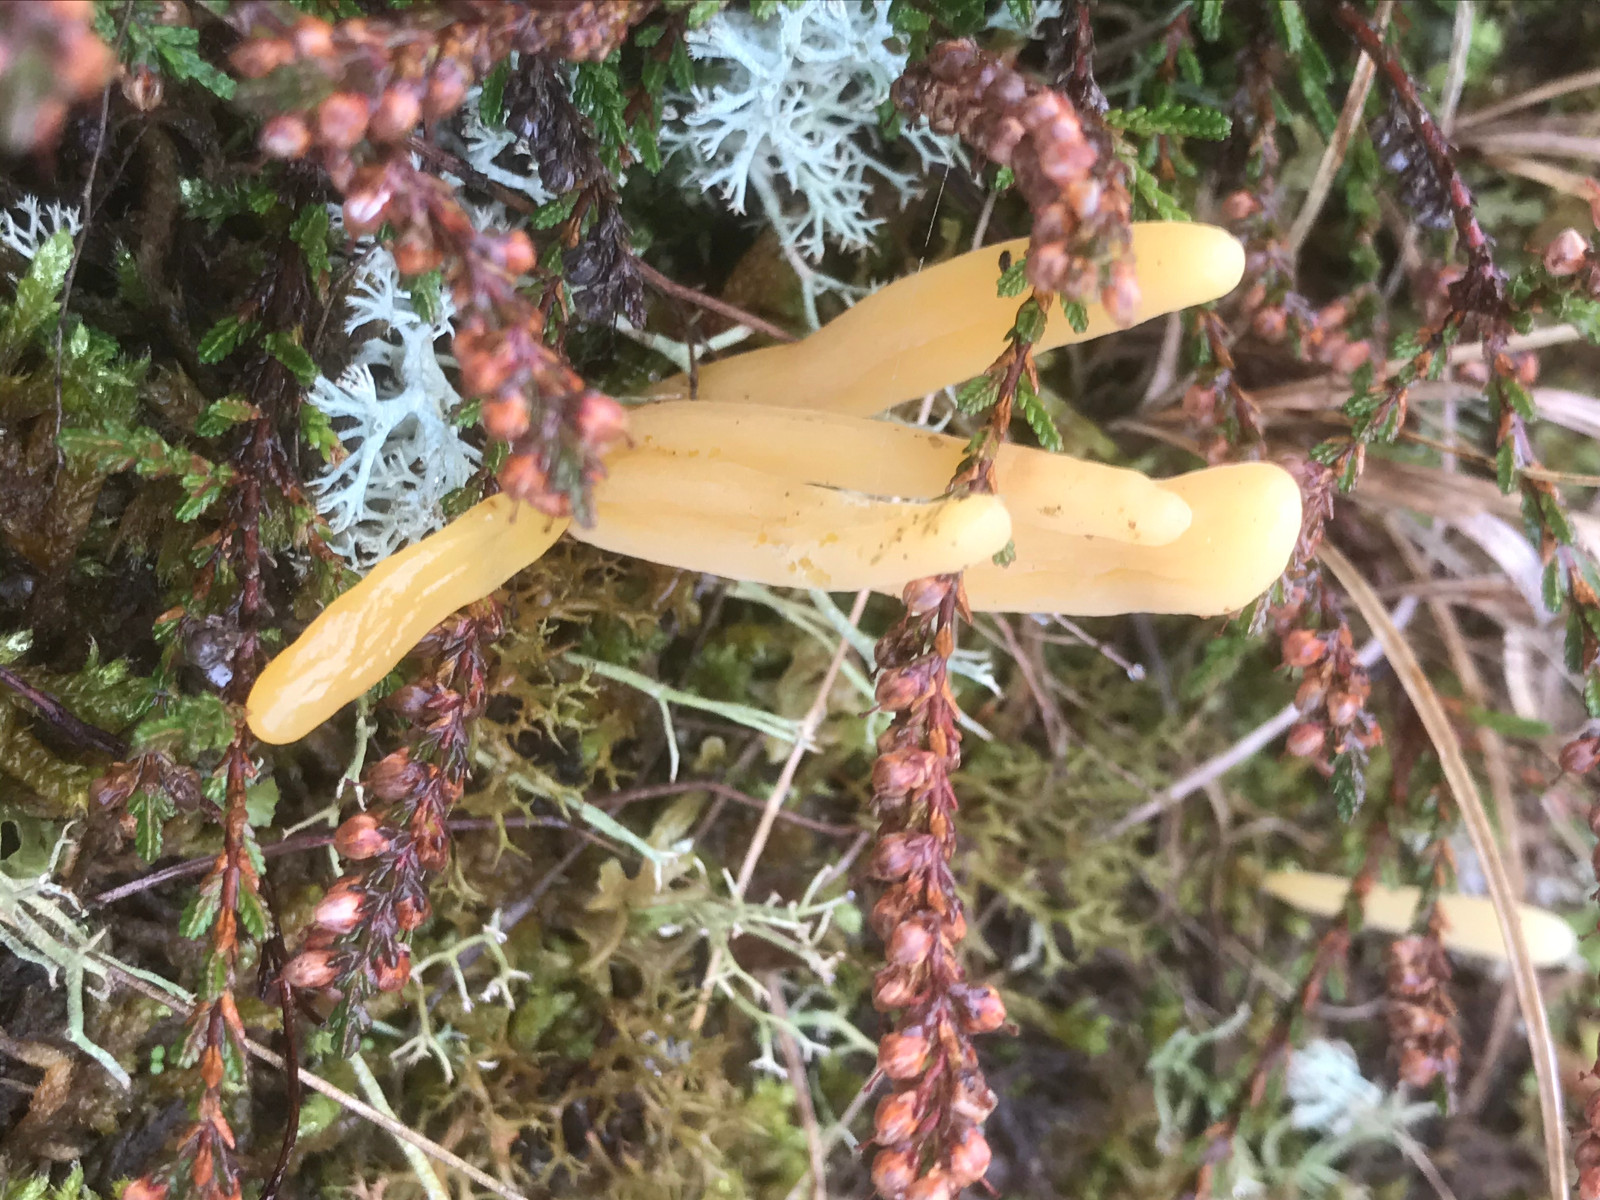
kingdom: Fungi
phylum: Basidiomycota
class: Agaricomycetes
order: Agaricales
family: Clavariaceae
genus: Clavaria
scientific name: Clavaria argillacea
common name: lerfarvet køllesvamp
